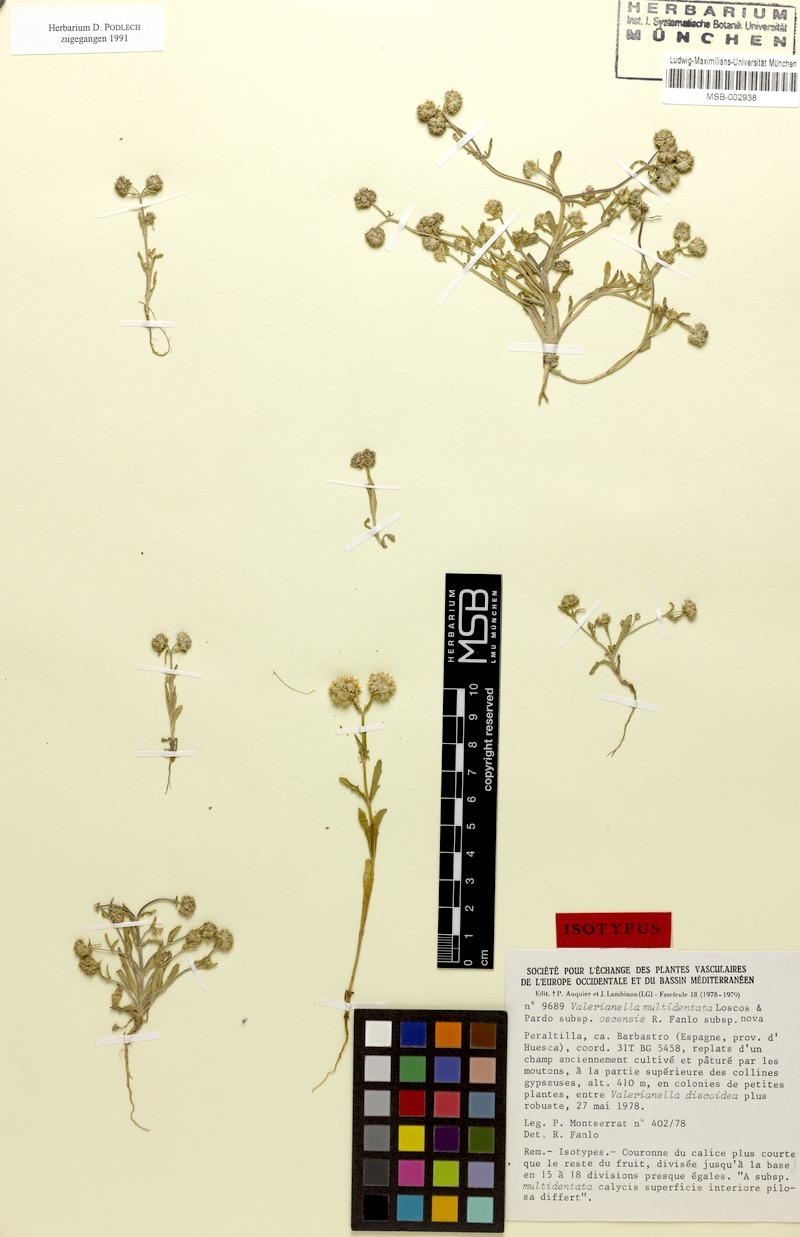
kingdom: Plantae
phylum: Tracheophyta
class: Magnoliopsida
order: Dipsacales
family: Caprifoliaceae
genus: Valerianella
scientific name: Valerianella multidentata
